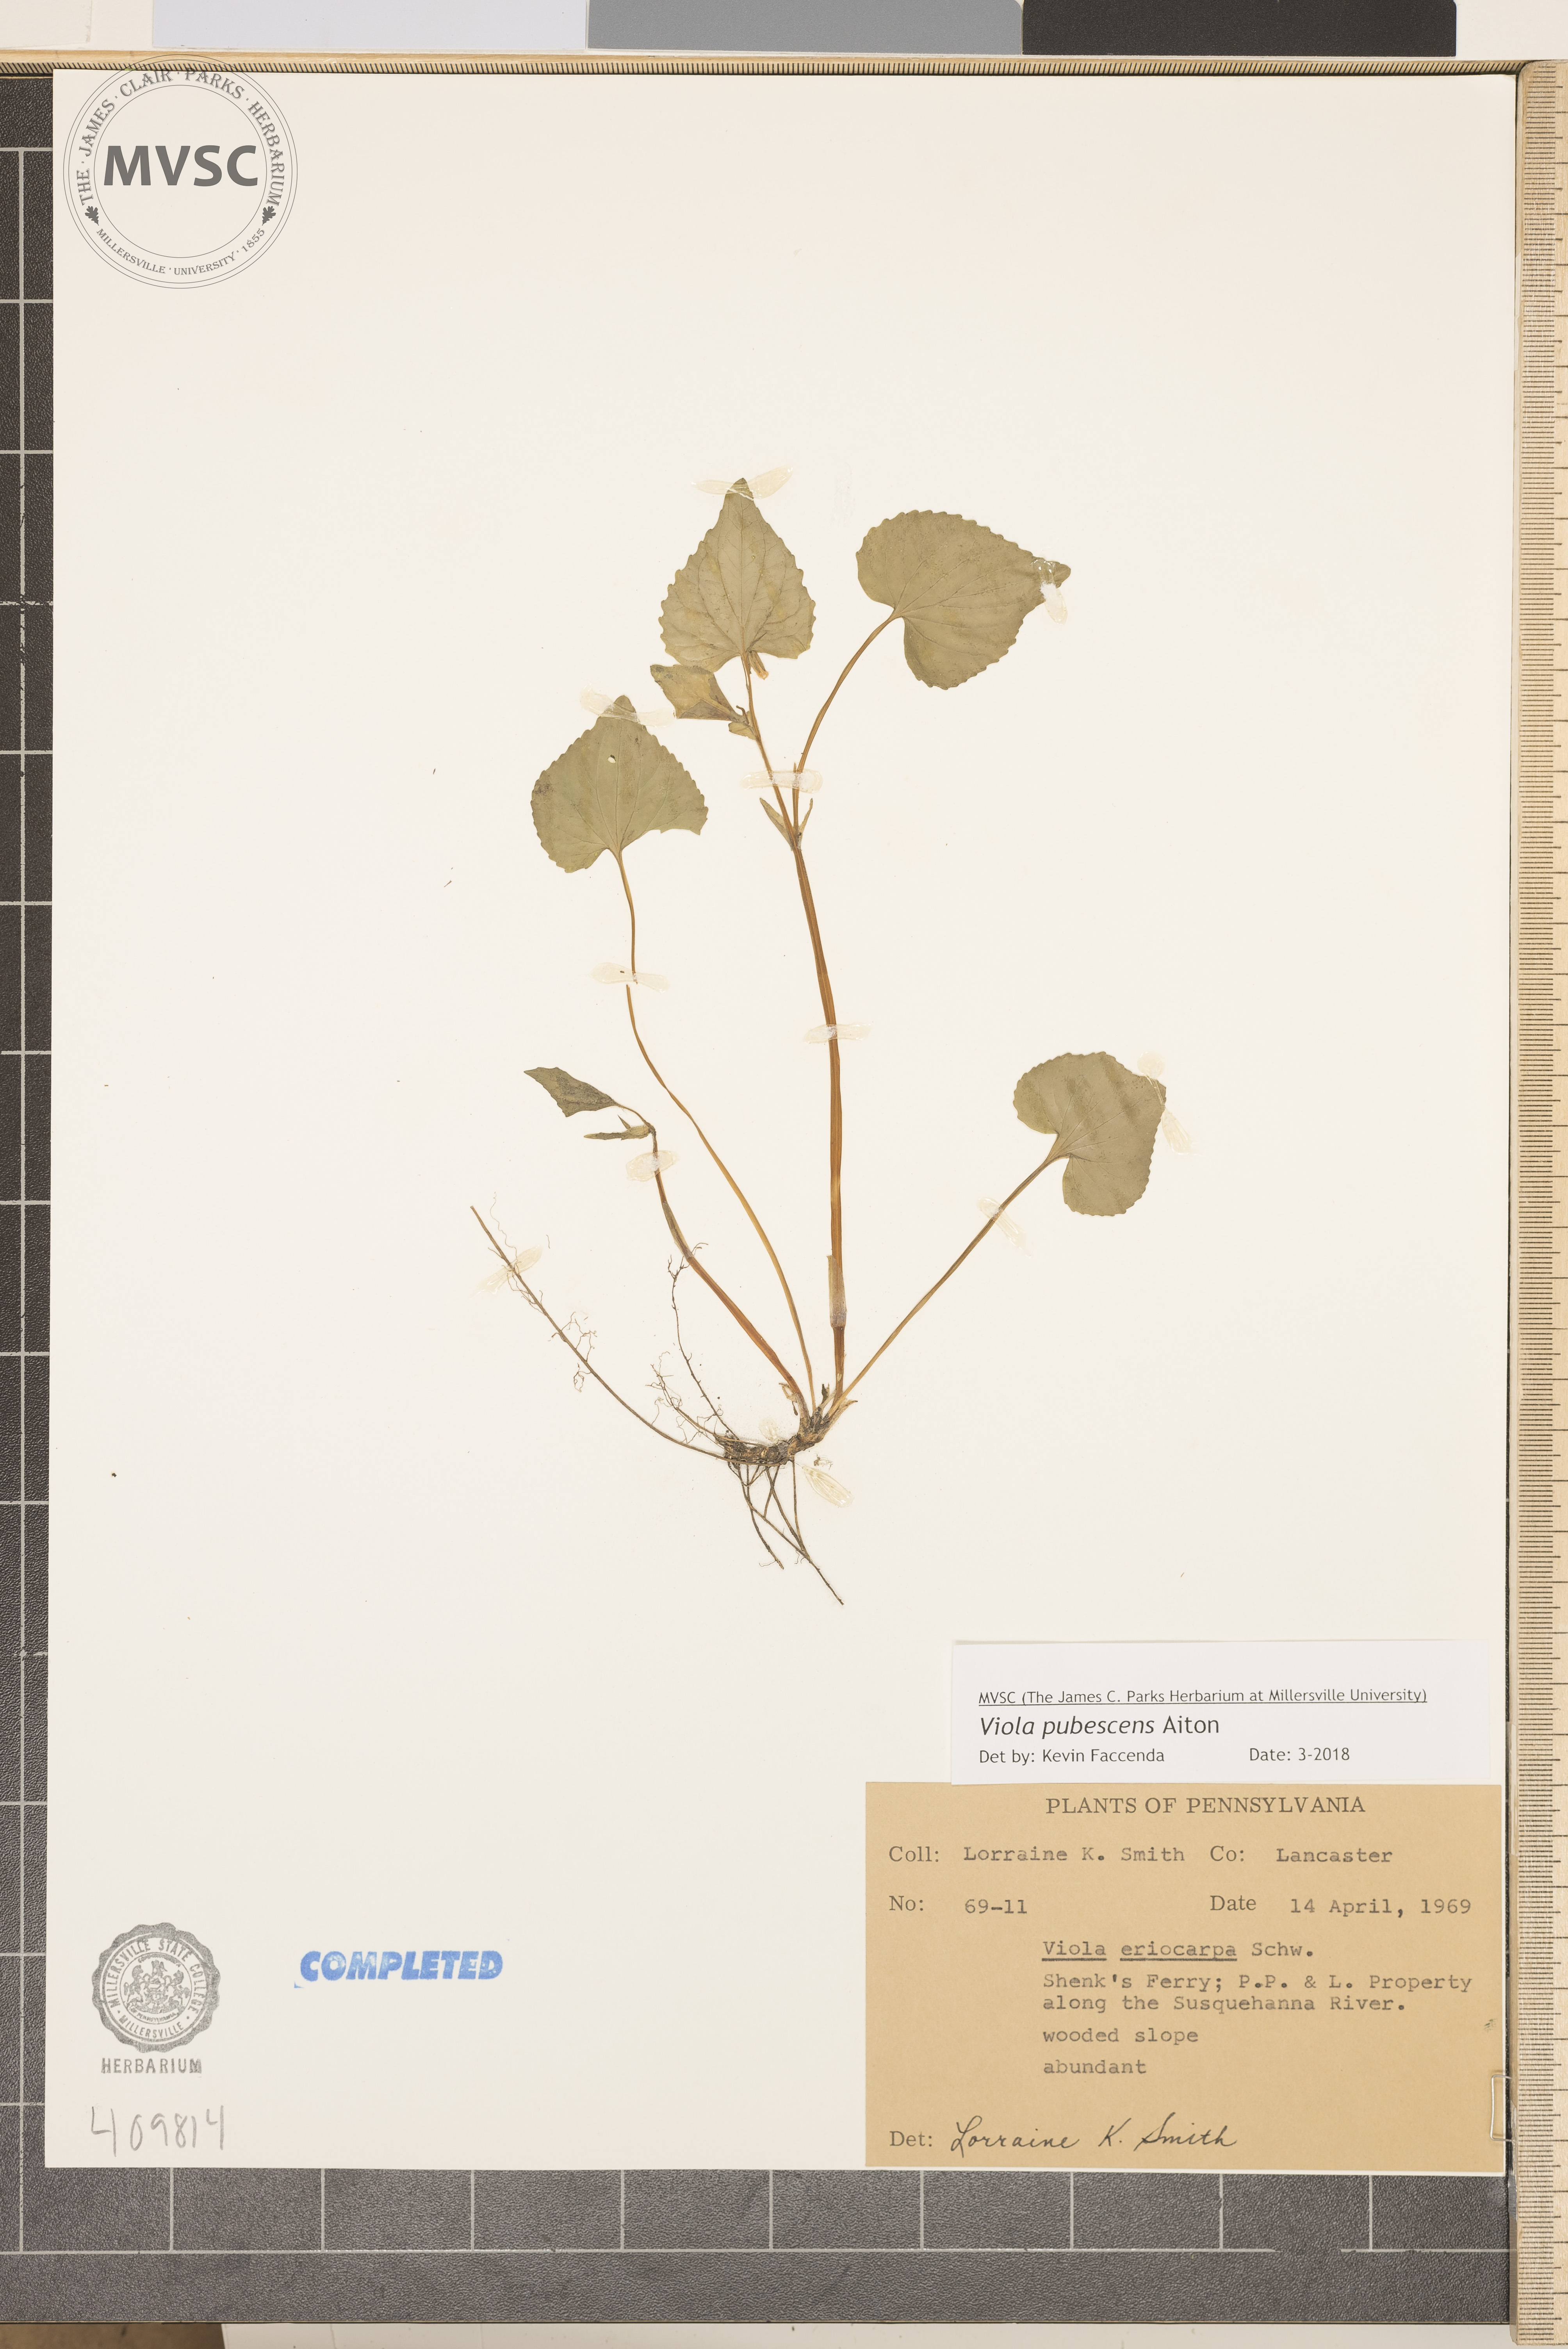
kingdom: Plantae
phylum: Tracheophyta
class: Magnoliopsida
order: Malpighiales
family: Violaceae
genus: Viola
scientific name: Viola pubescens
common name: downy yellow violet
